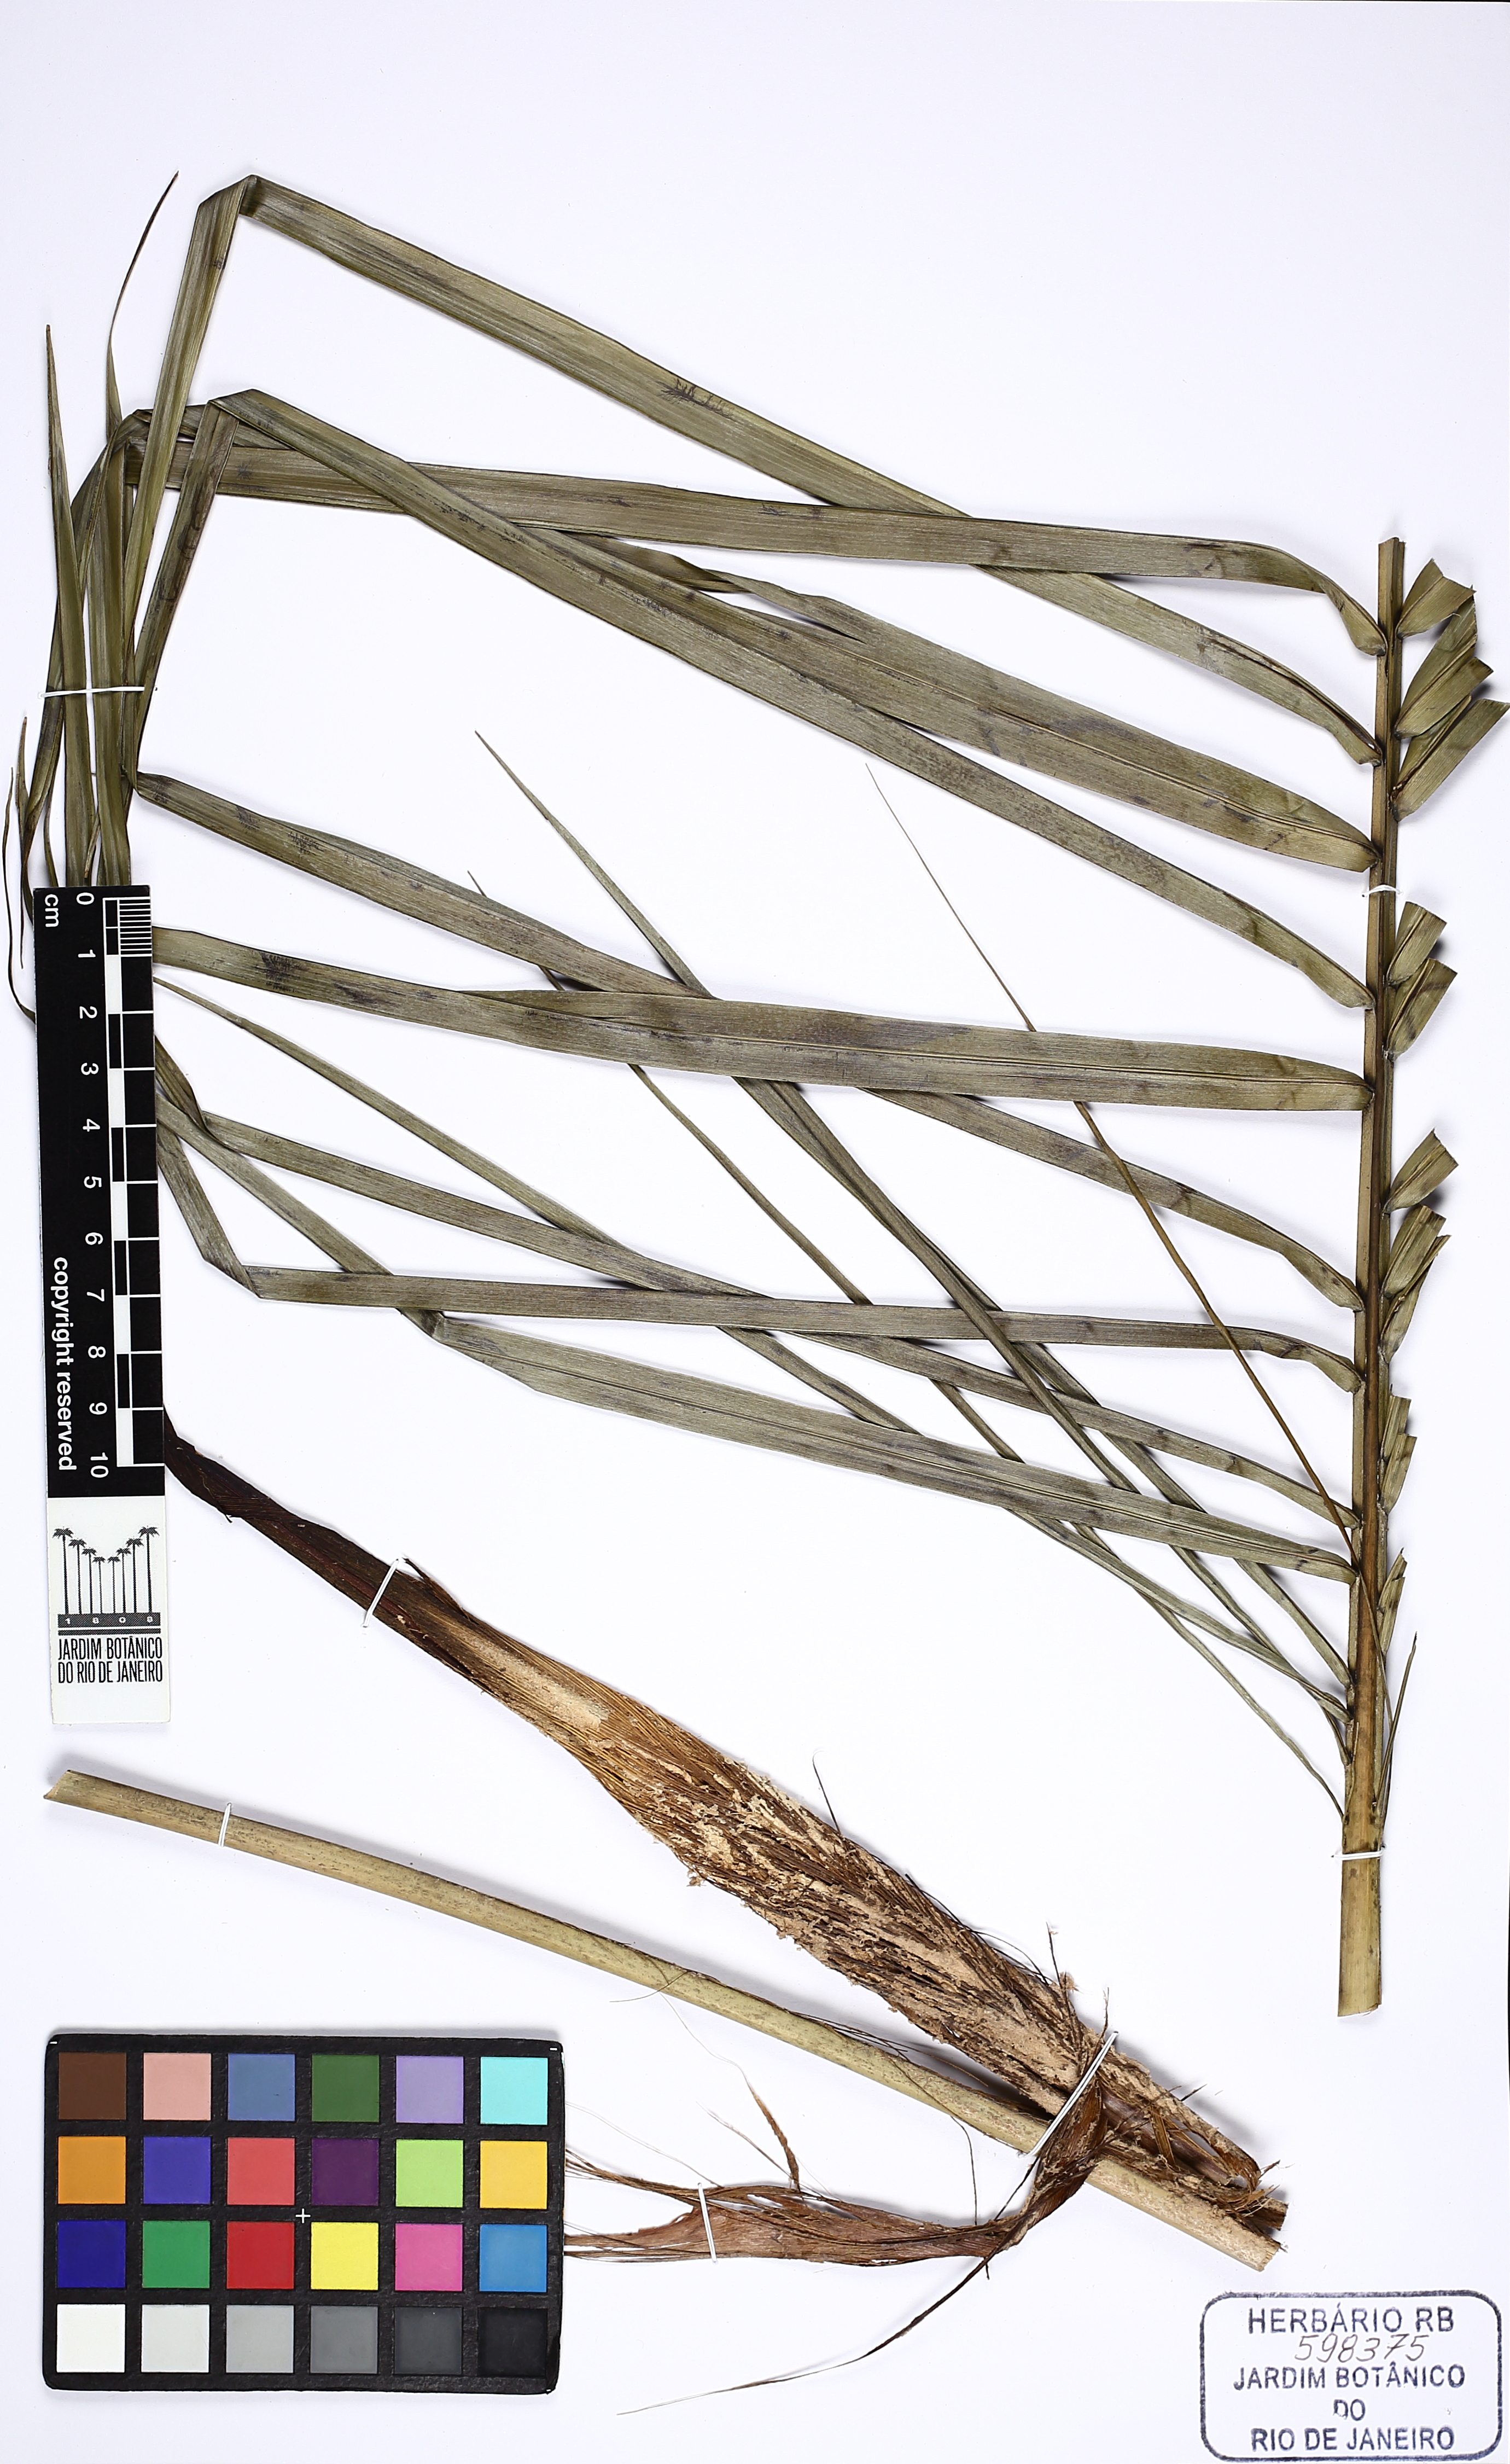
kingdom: Plantae
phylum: Tracheophyta
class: Liliopsida
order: Arecales
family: Arecaceae
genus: Syagrus
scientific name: Syagrus ruschiana
